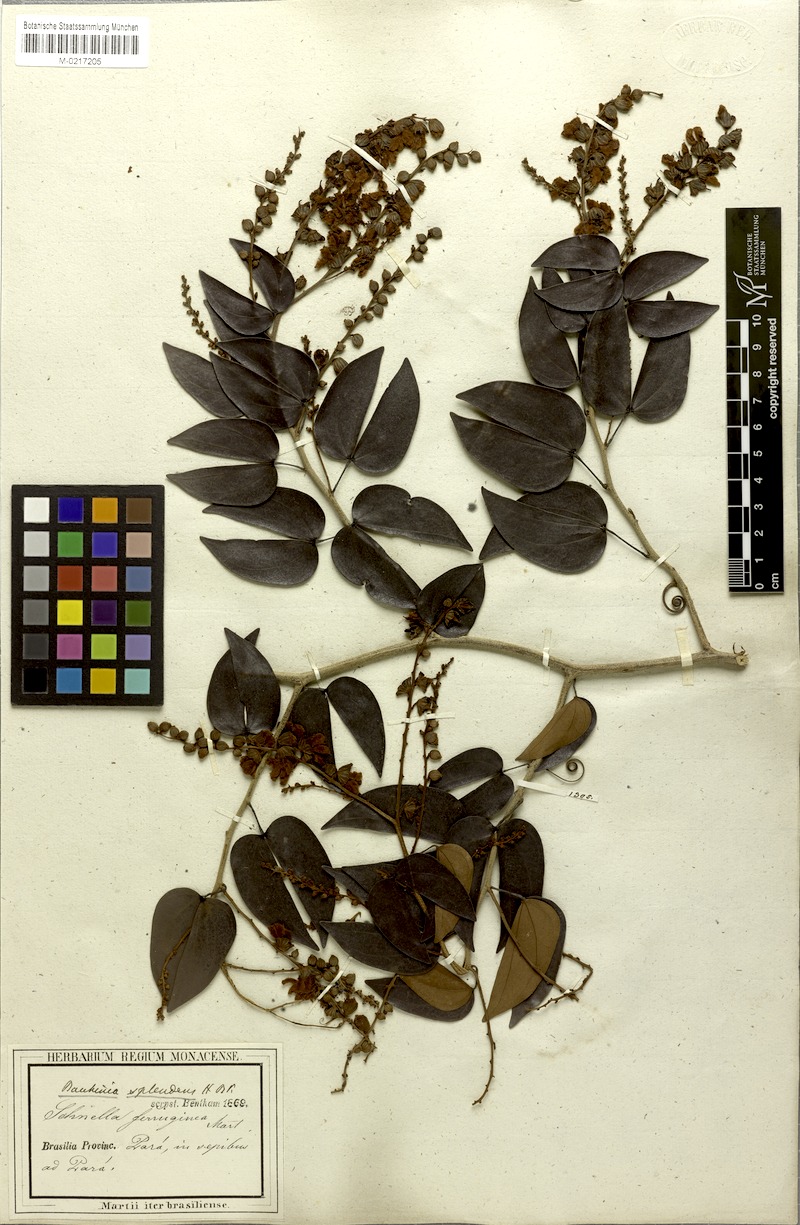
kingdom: Plantae
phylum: Tracheophyta
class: Magnoliopsida
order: Fabales
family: Fabaceae
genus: Schnella
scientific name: Schnella splendens
